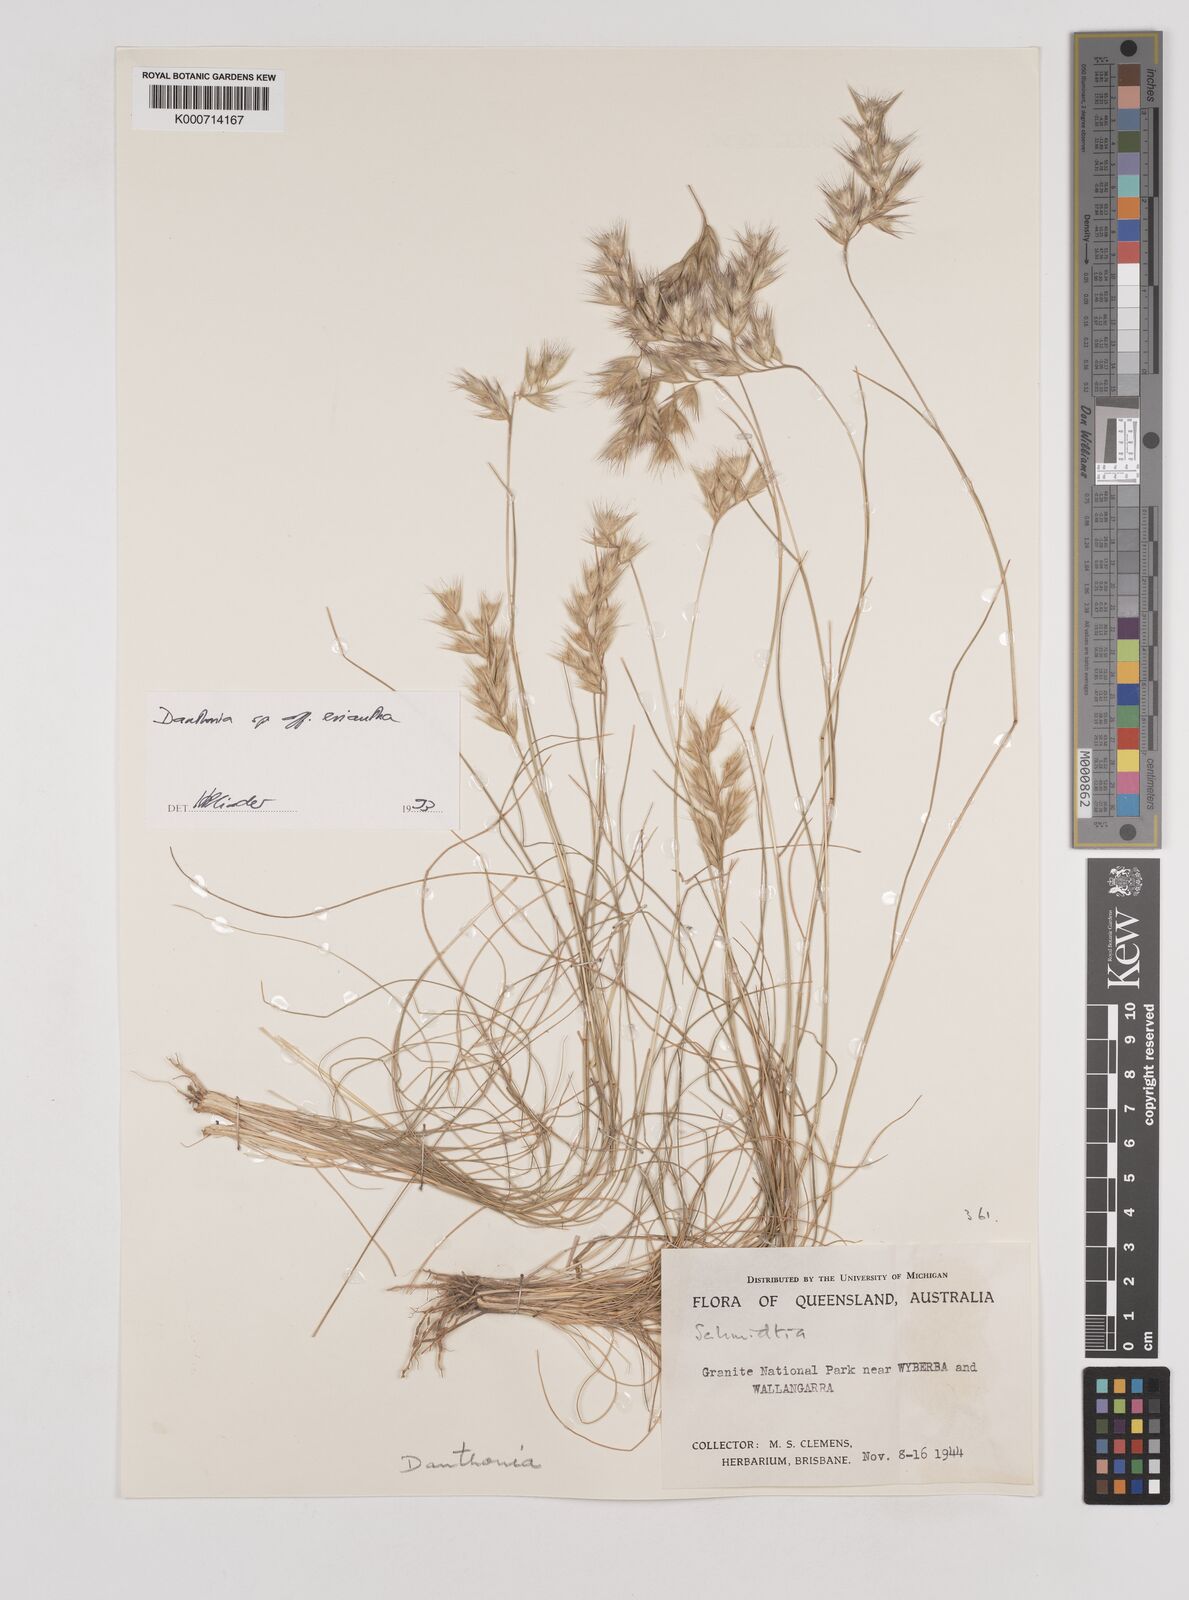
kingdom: Plantae
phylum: Tracheophyta
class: Liliopsida
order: Poales
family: Poaceae
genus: Rytidosperma
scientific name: Rytidosperma
